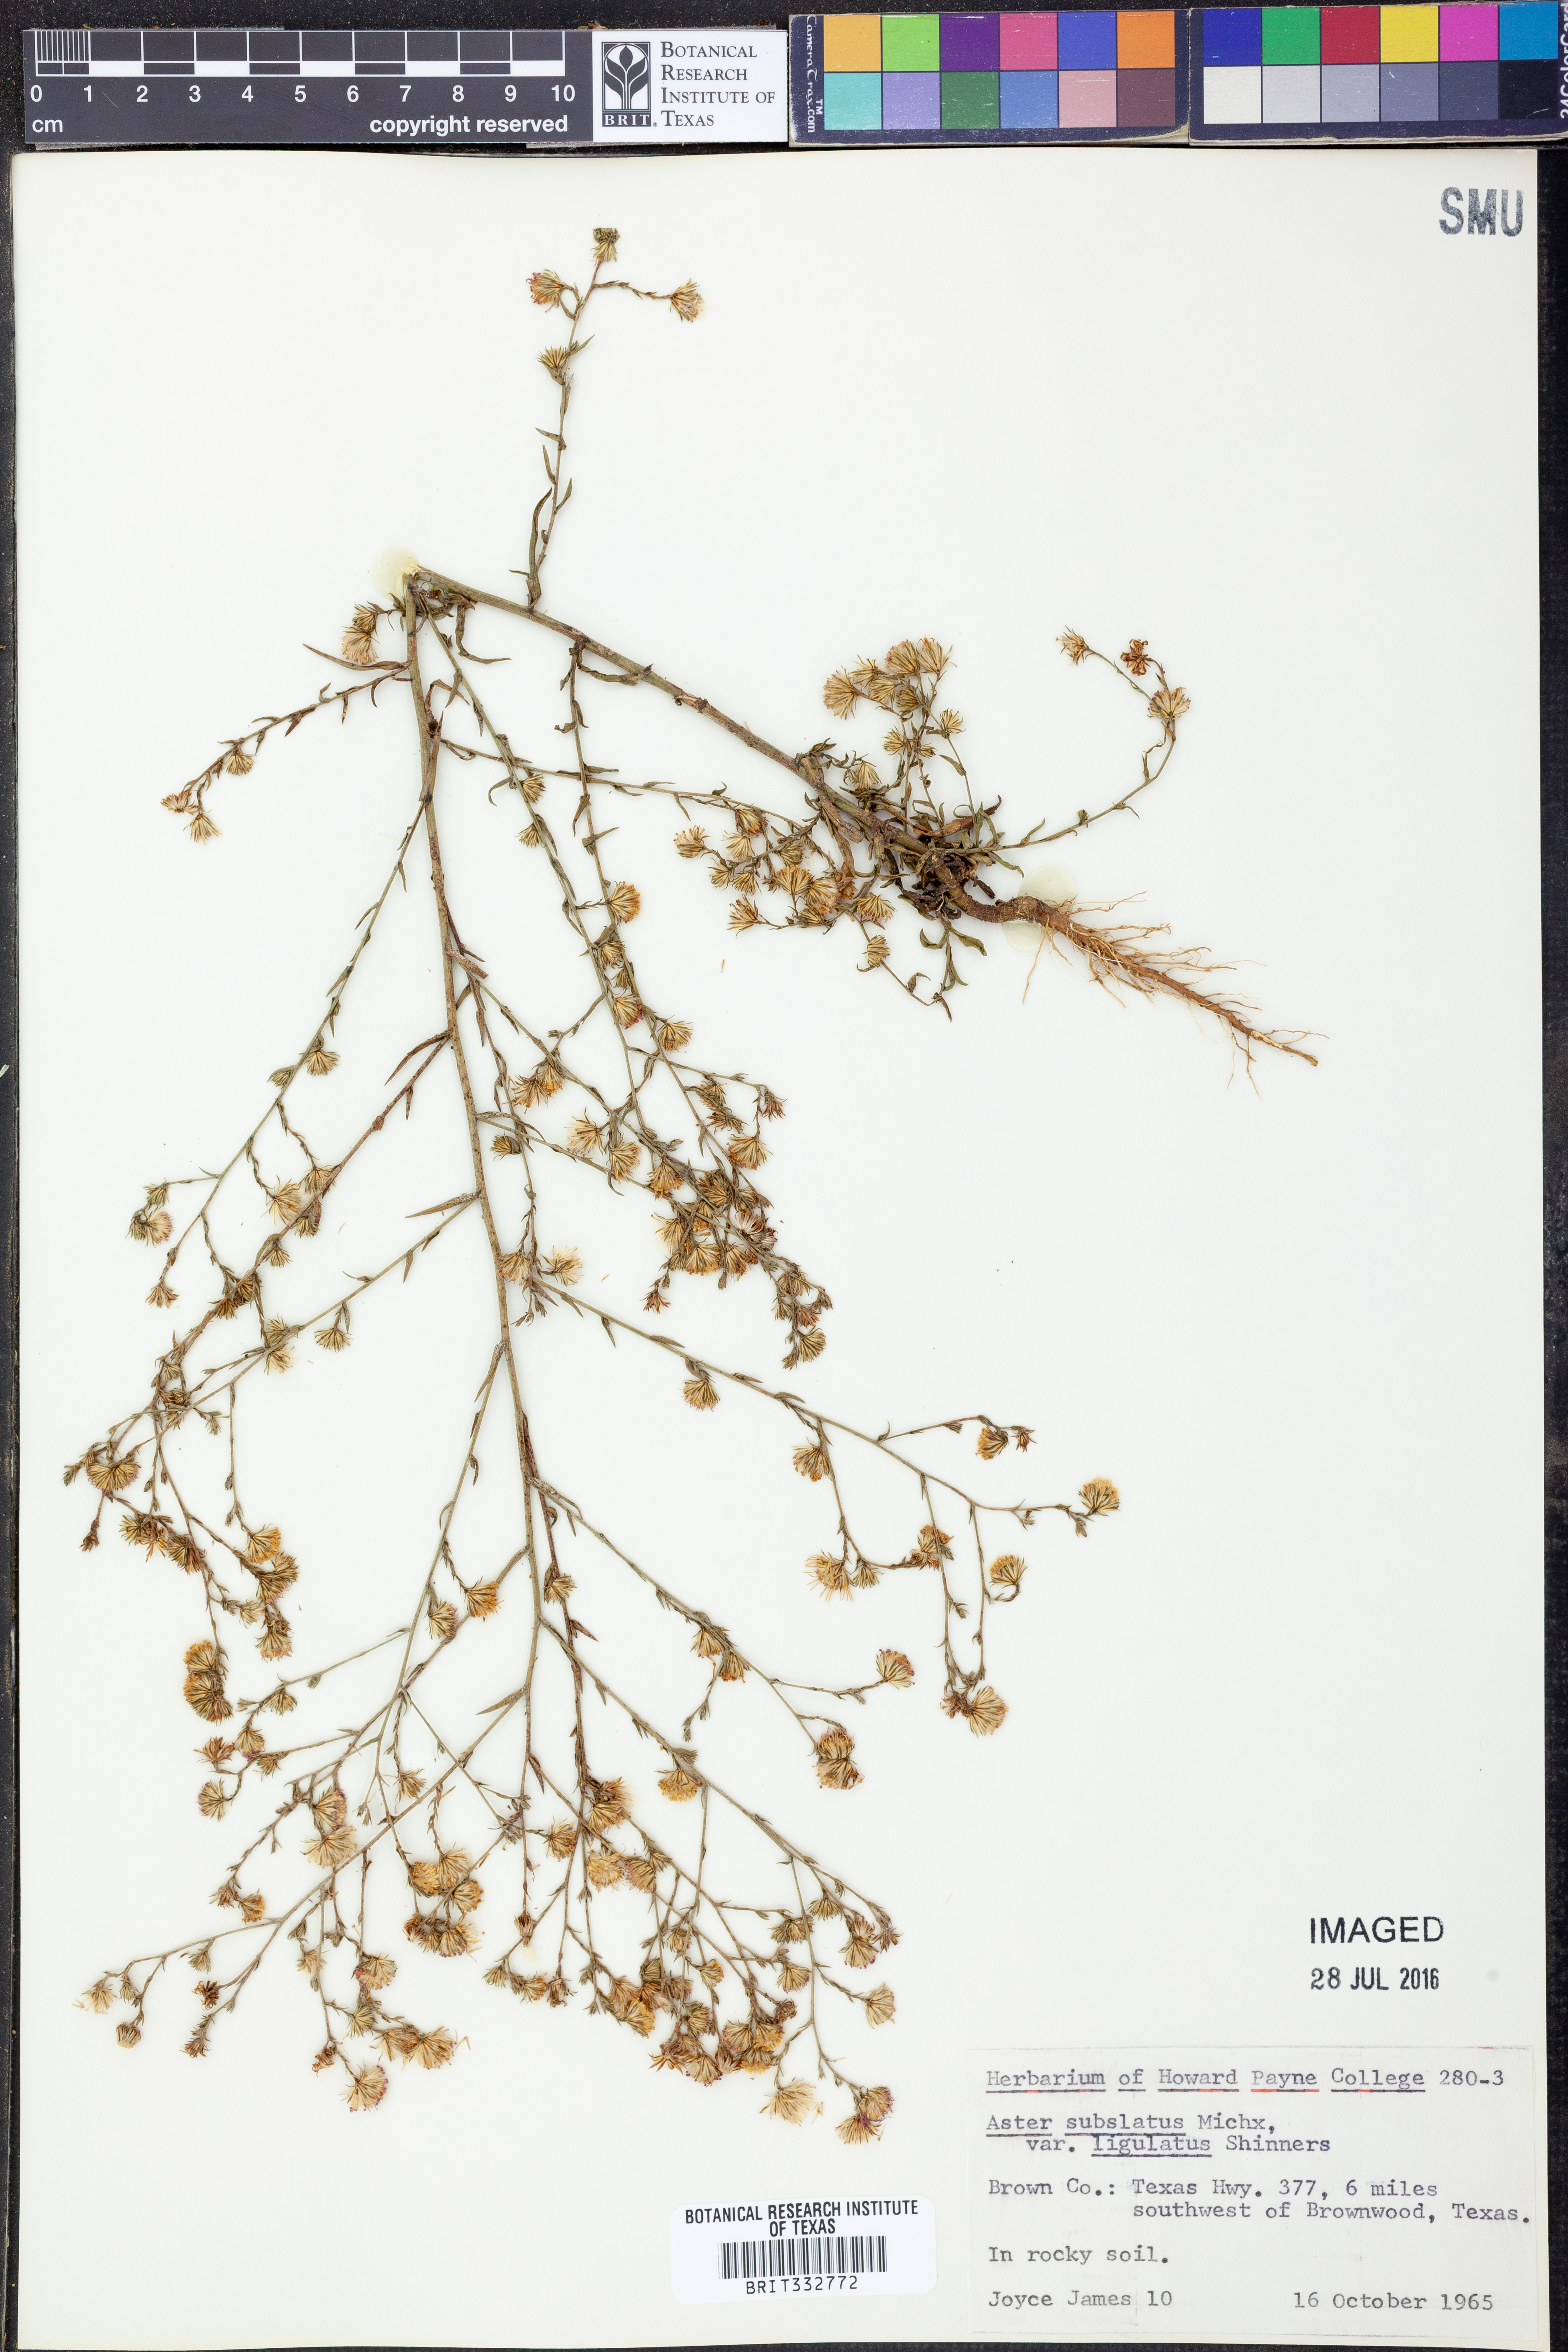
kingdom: Plantae
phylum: Tracheophyta
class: Magnoliopsida
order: Asterales
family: Asteraceae
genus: Symphyotrichum
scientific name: Symphyotrichum divaricatum
